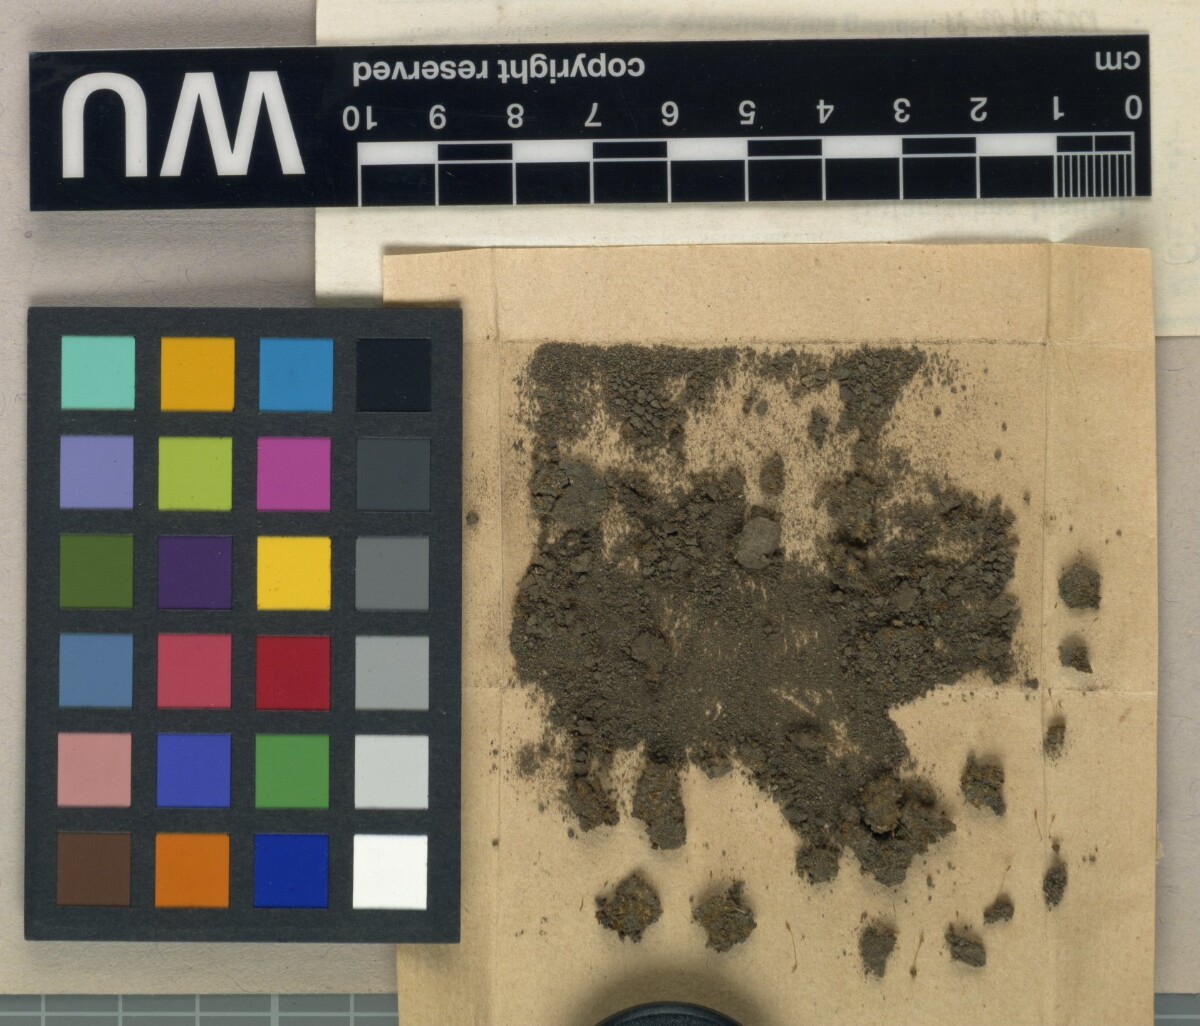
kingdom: Plantae
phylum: Bryophyta
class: Bryopsida
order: Pottiales
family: Pottiaceae
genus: Hyophila
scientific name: Hyophila setschwanica
